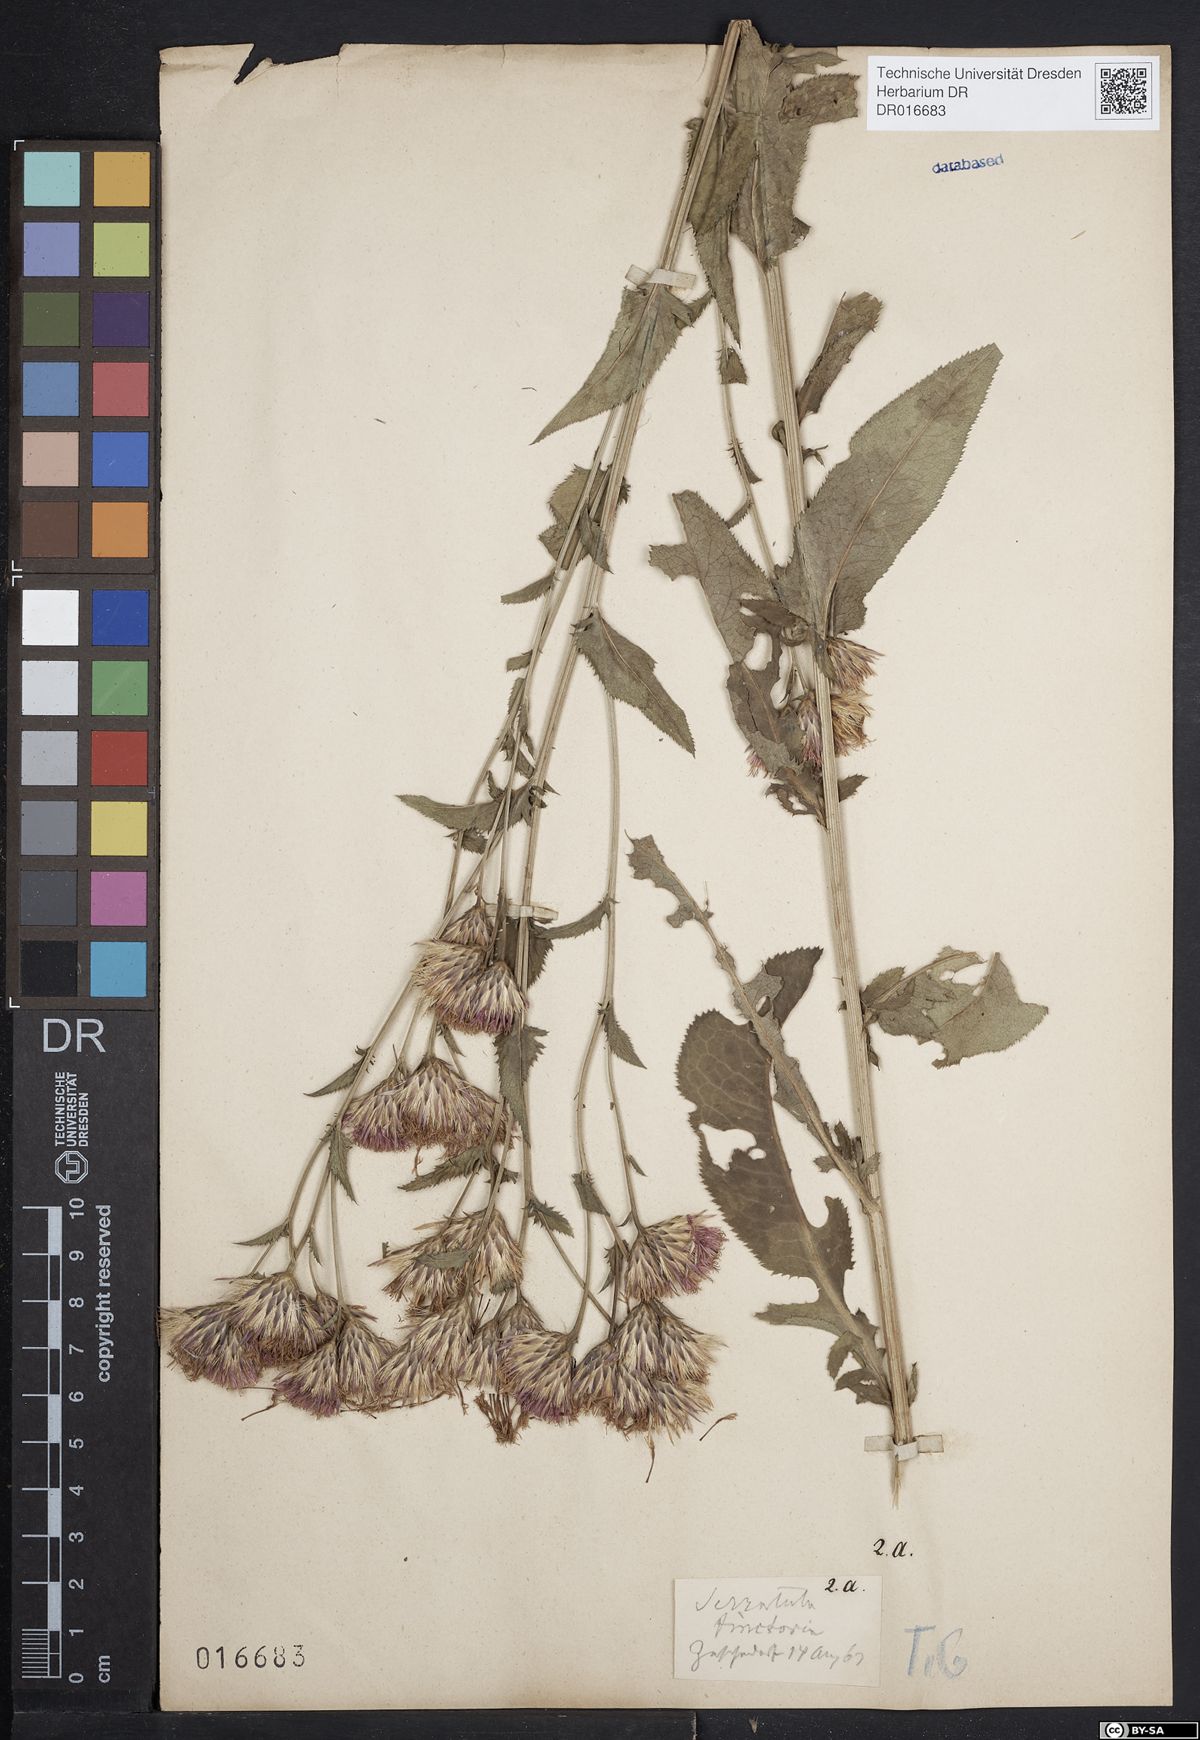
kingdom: Plantae
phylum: Tracheophyta
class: Magnoliopsida
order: Asterales
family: Asteraceae
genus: Serratula
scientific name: Serratula tinctoria
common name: Saw-wort
